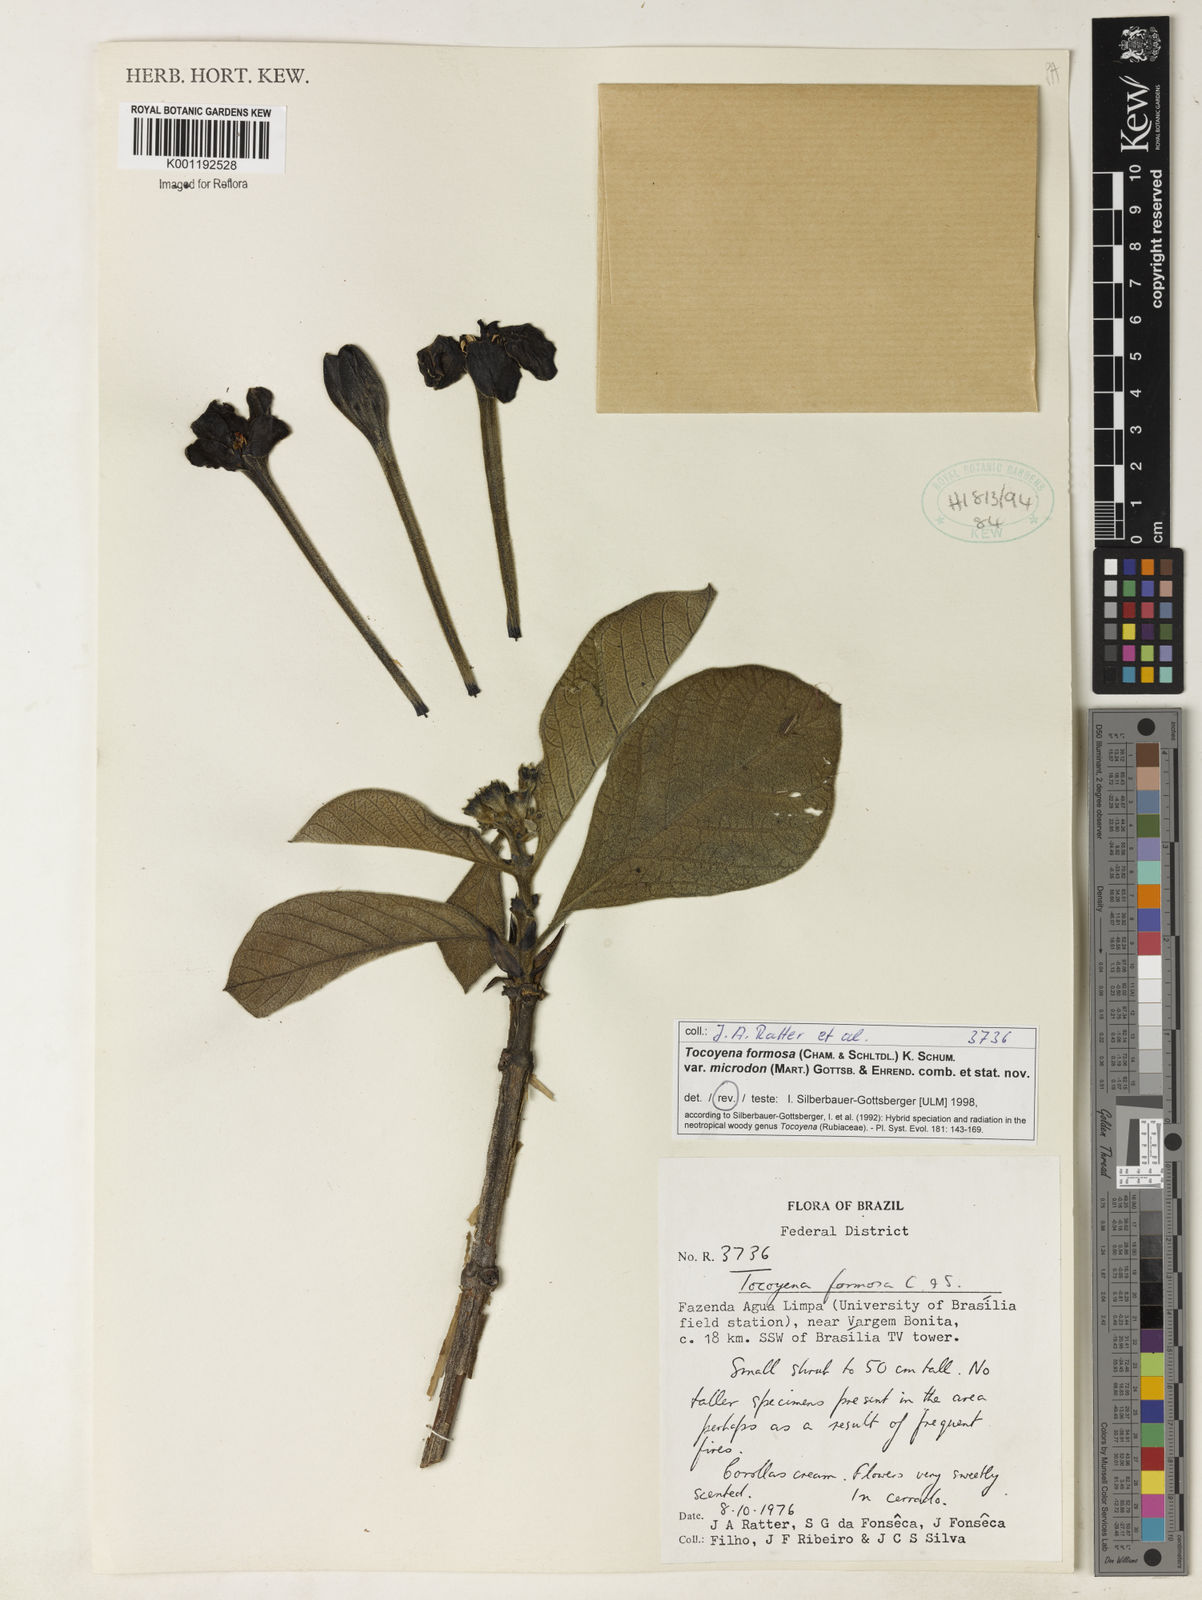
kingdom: Plantae
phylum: Tracheophyta
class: Magnoliopsida
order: Gentianales
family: Rubiaceae
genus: Tocoyena
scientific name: Tocoyena formosa
